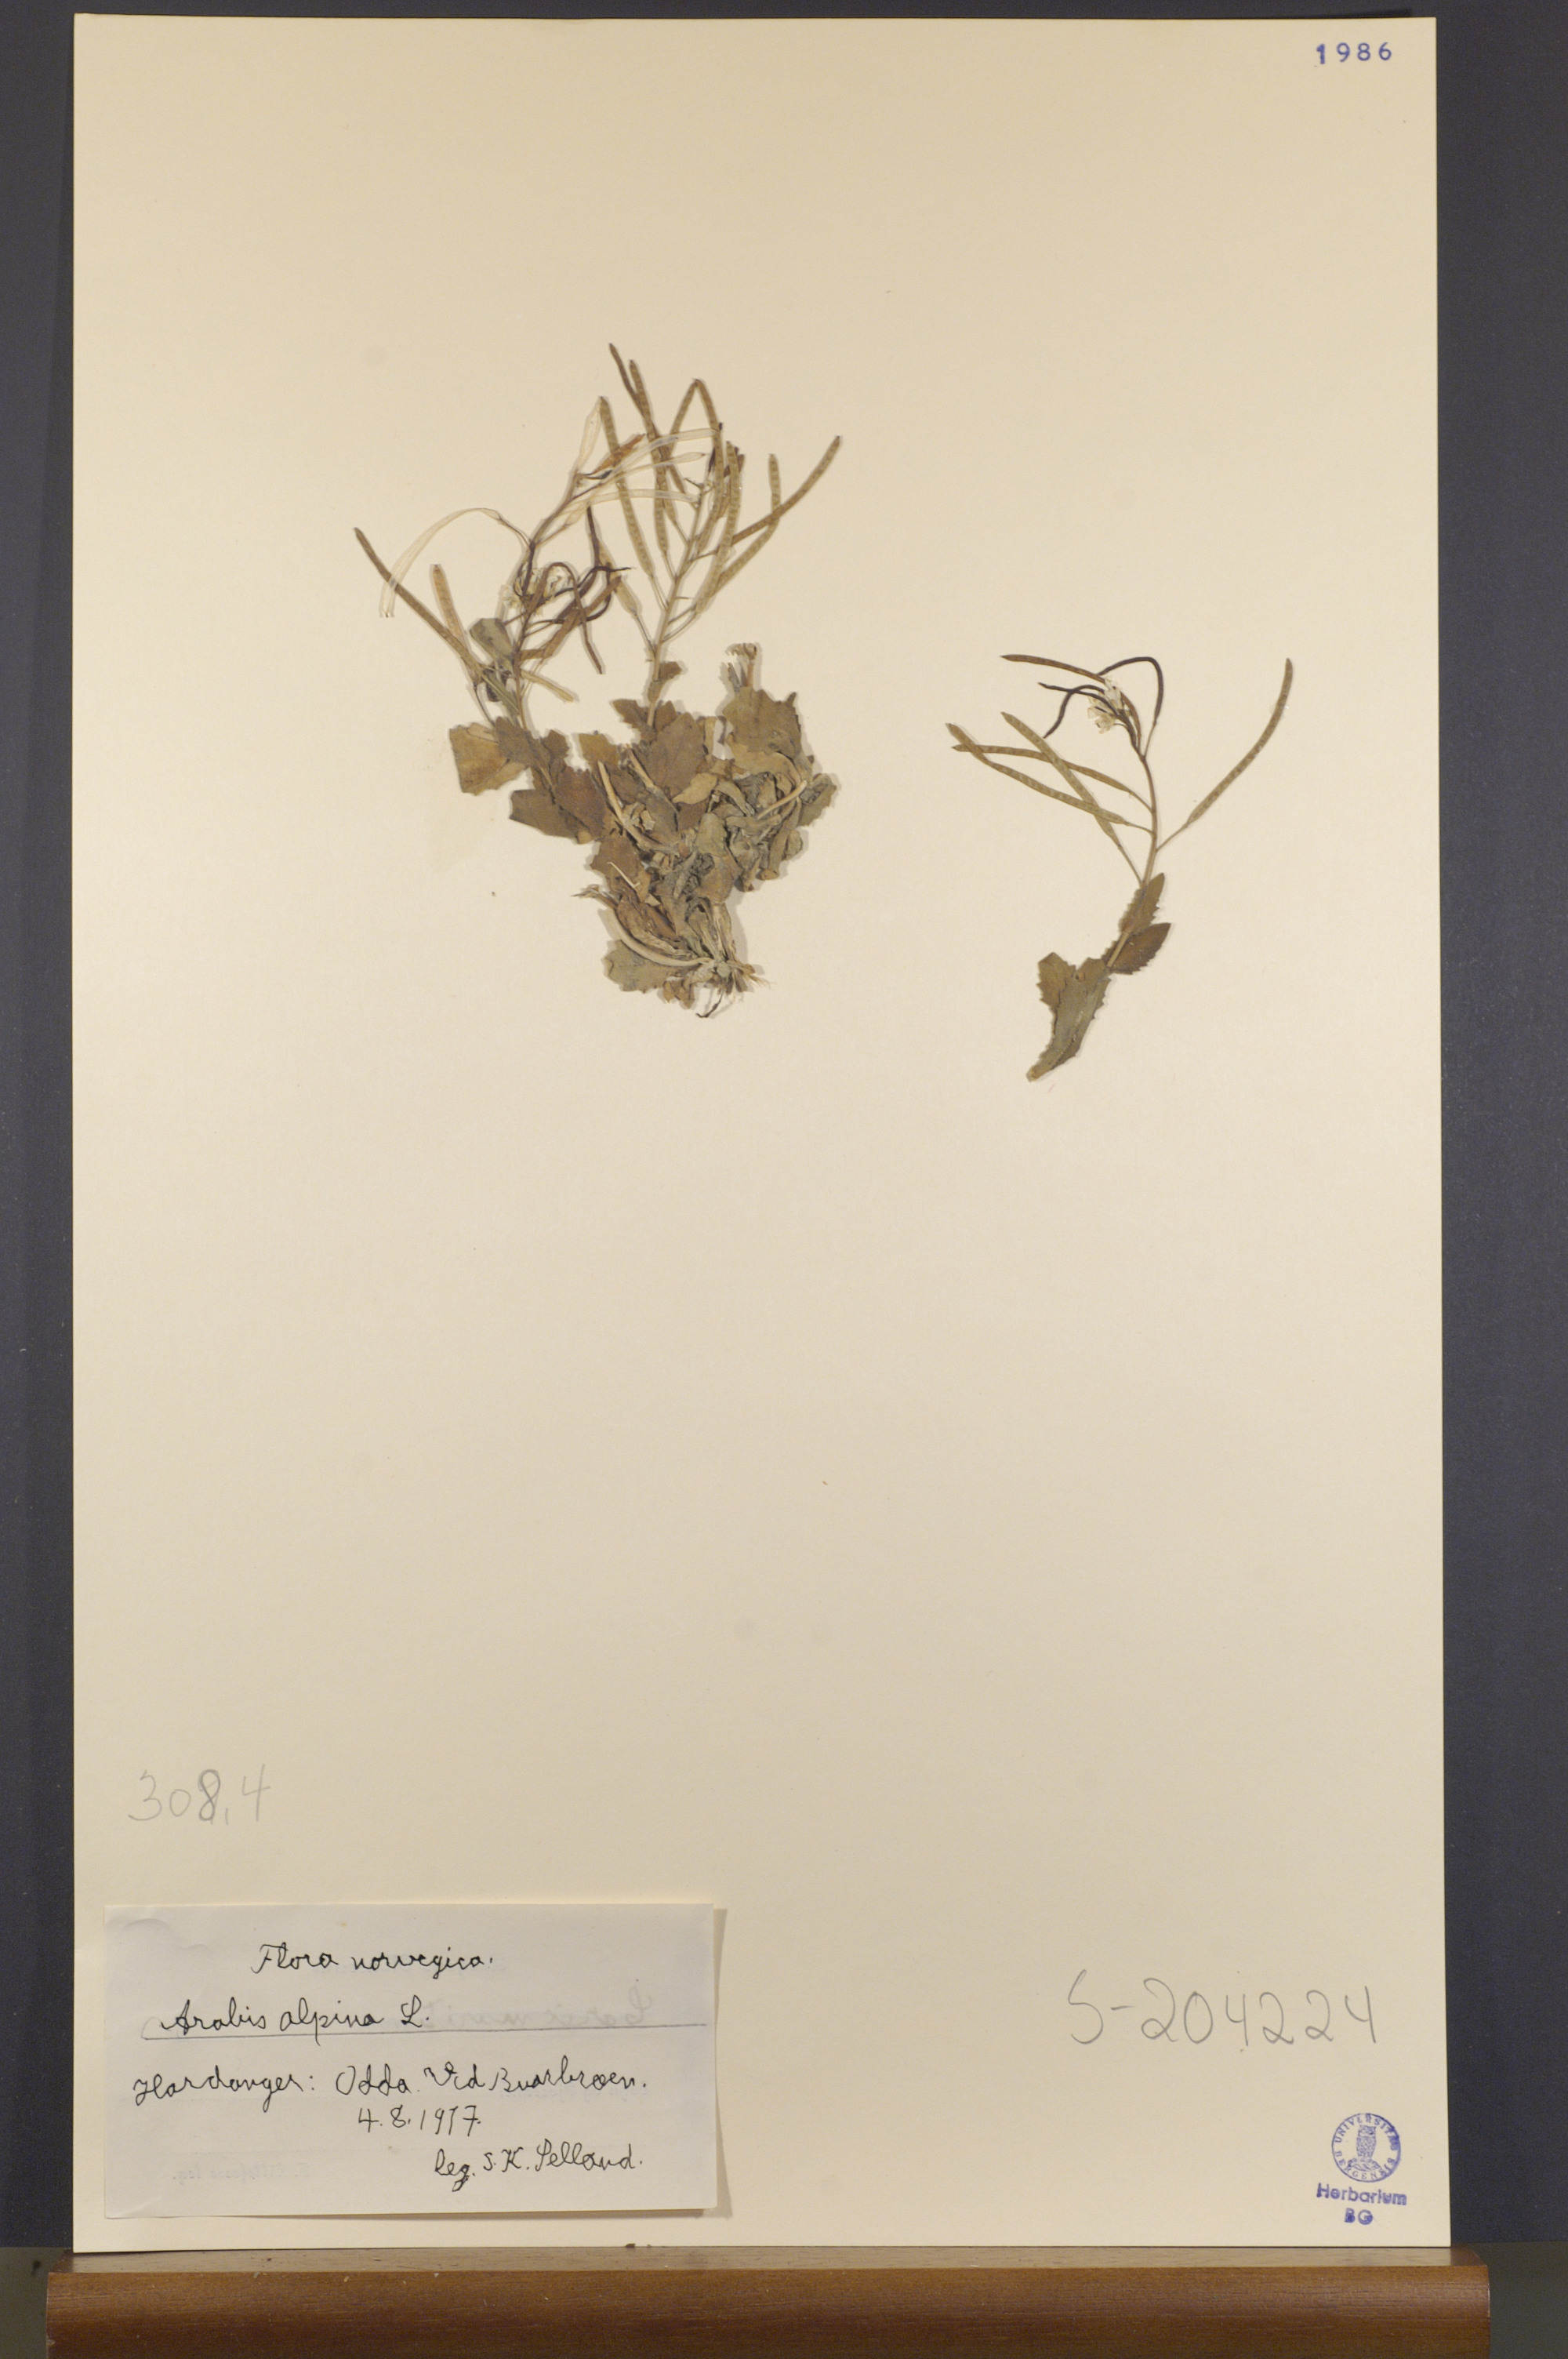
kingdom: Plantae
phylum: Tracheophyta
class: Magnoliopsida
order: Brassicales
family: Brassicaceae
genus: Arabis
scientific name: Arabis alpina
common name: Alpine rock-cress
